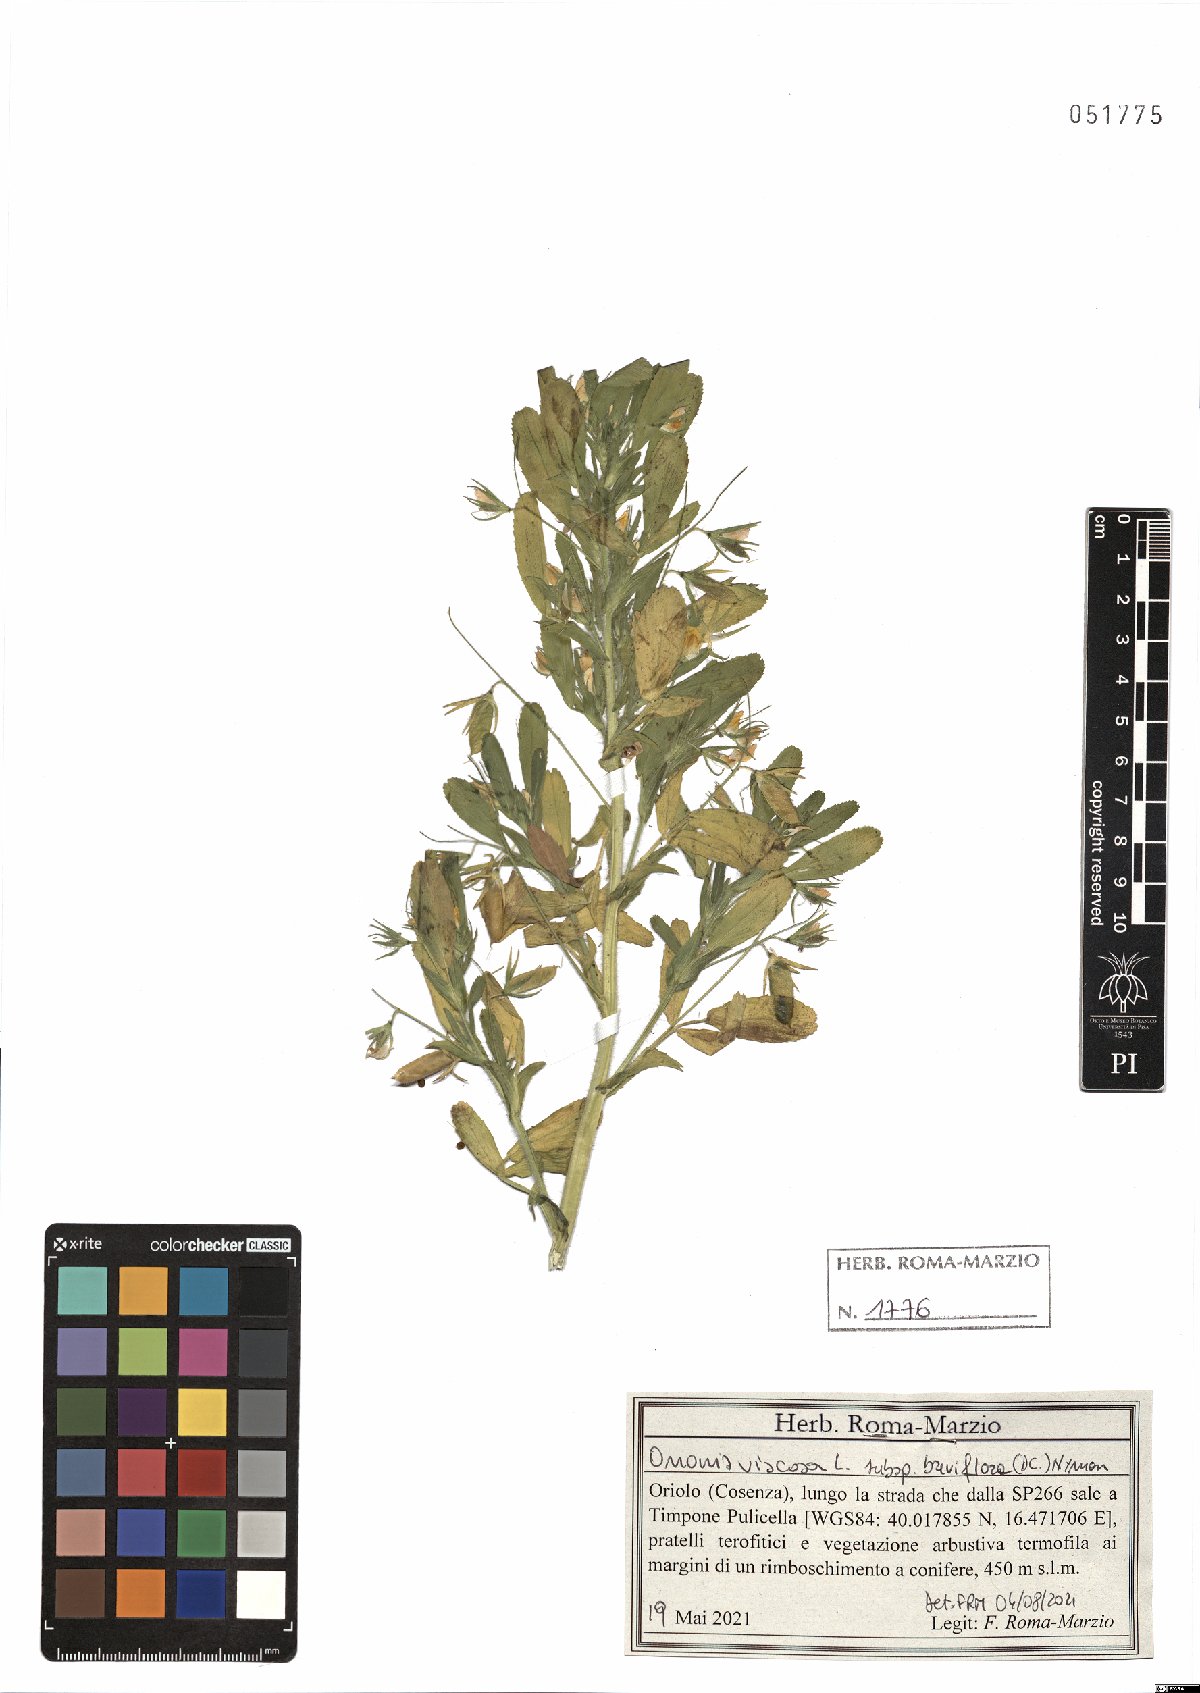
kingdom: Plantae
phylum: Tracheophyta
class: Magnoliopsida
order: Fabales
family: Fabaceae
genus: Ononis
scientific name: Ononis viscosa
